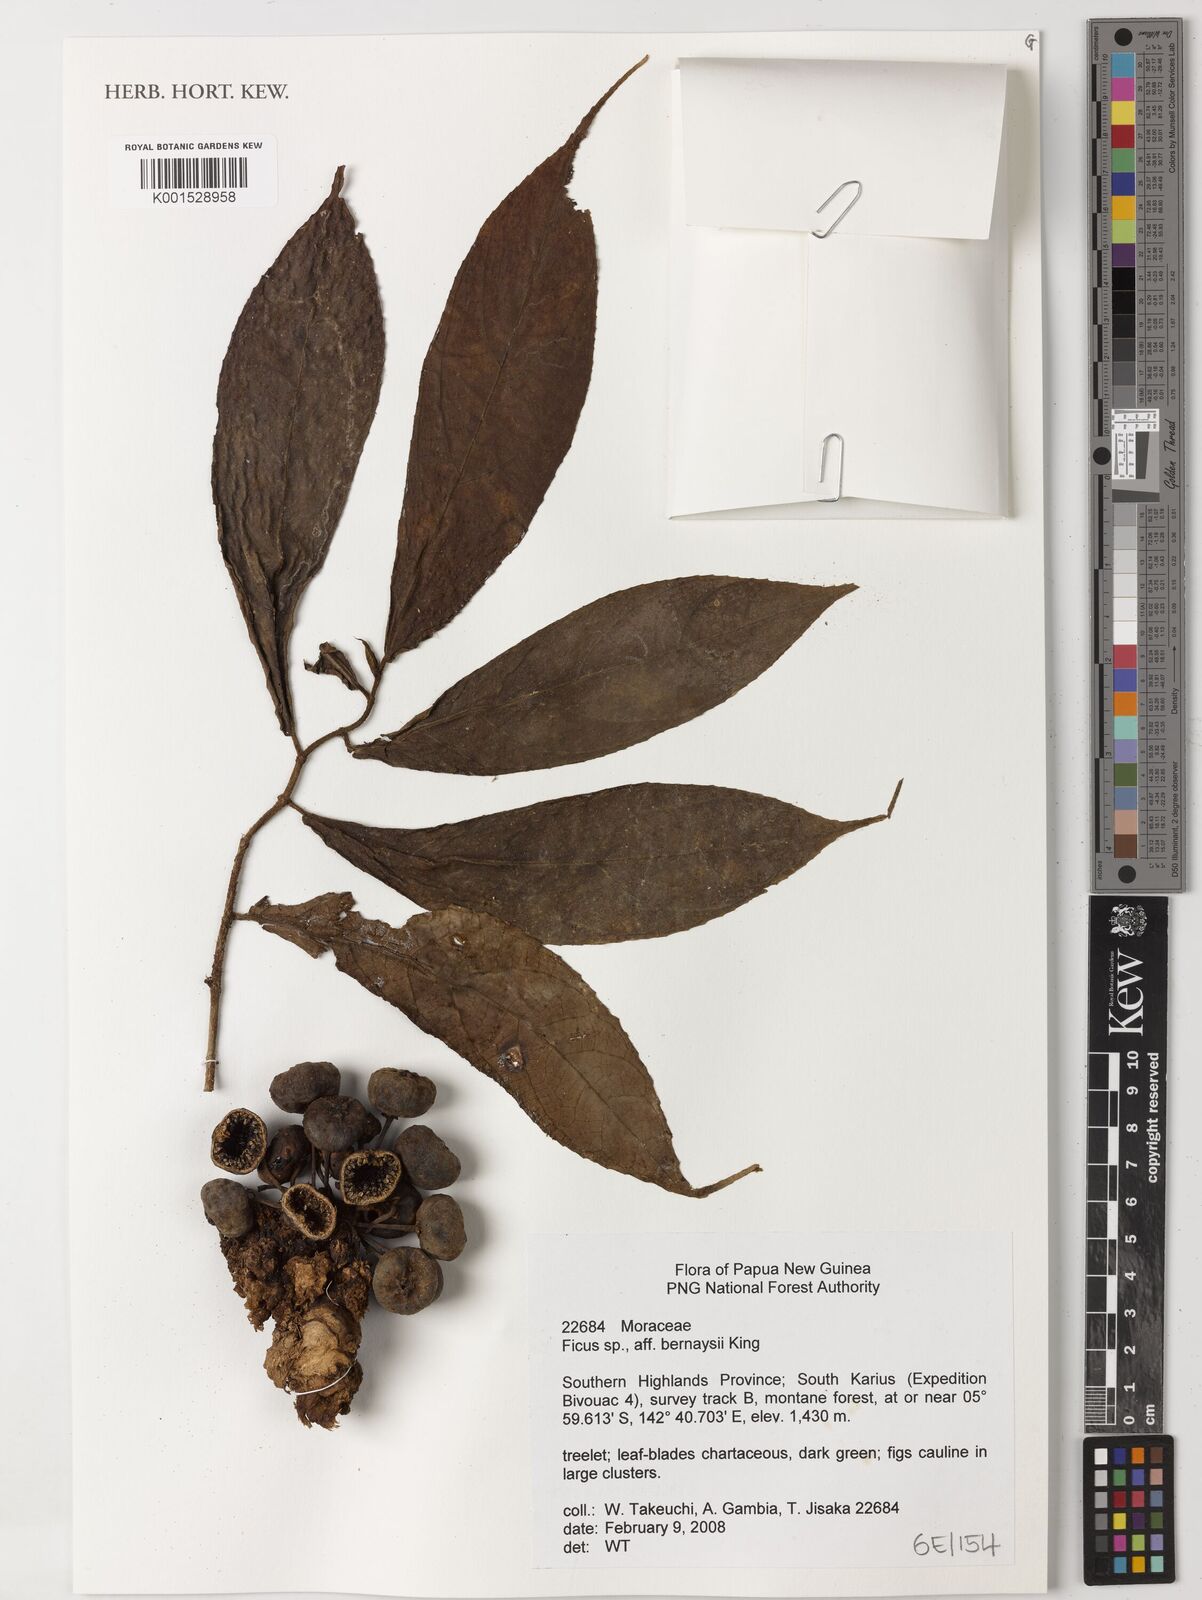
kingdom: Plantae
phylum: Tracheophyta
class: Magnoliopsida
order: Rosales
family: Moraceae
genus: Ficus
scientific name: Ficus bernaysii
